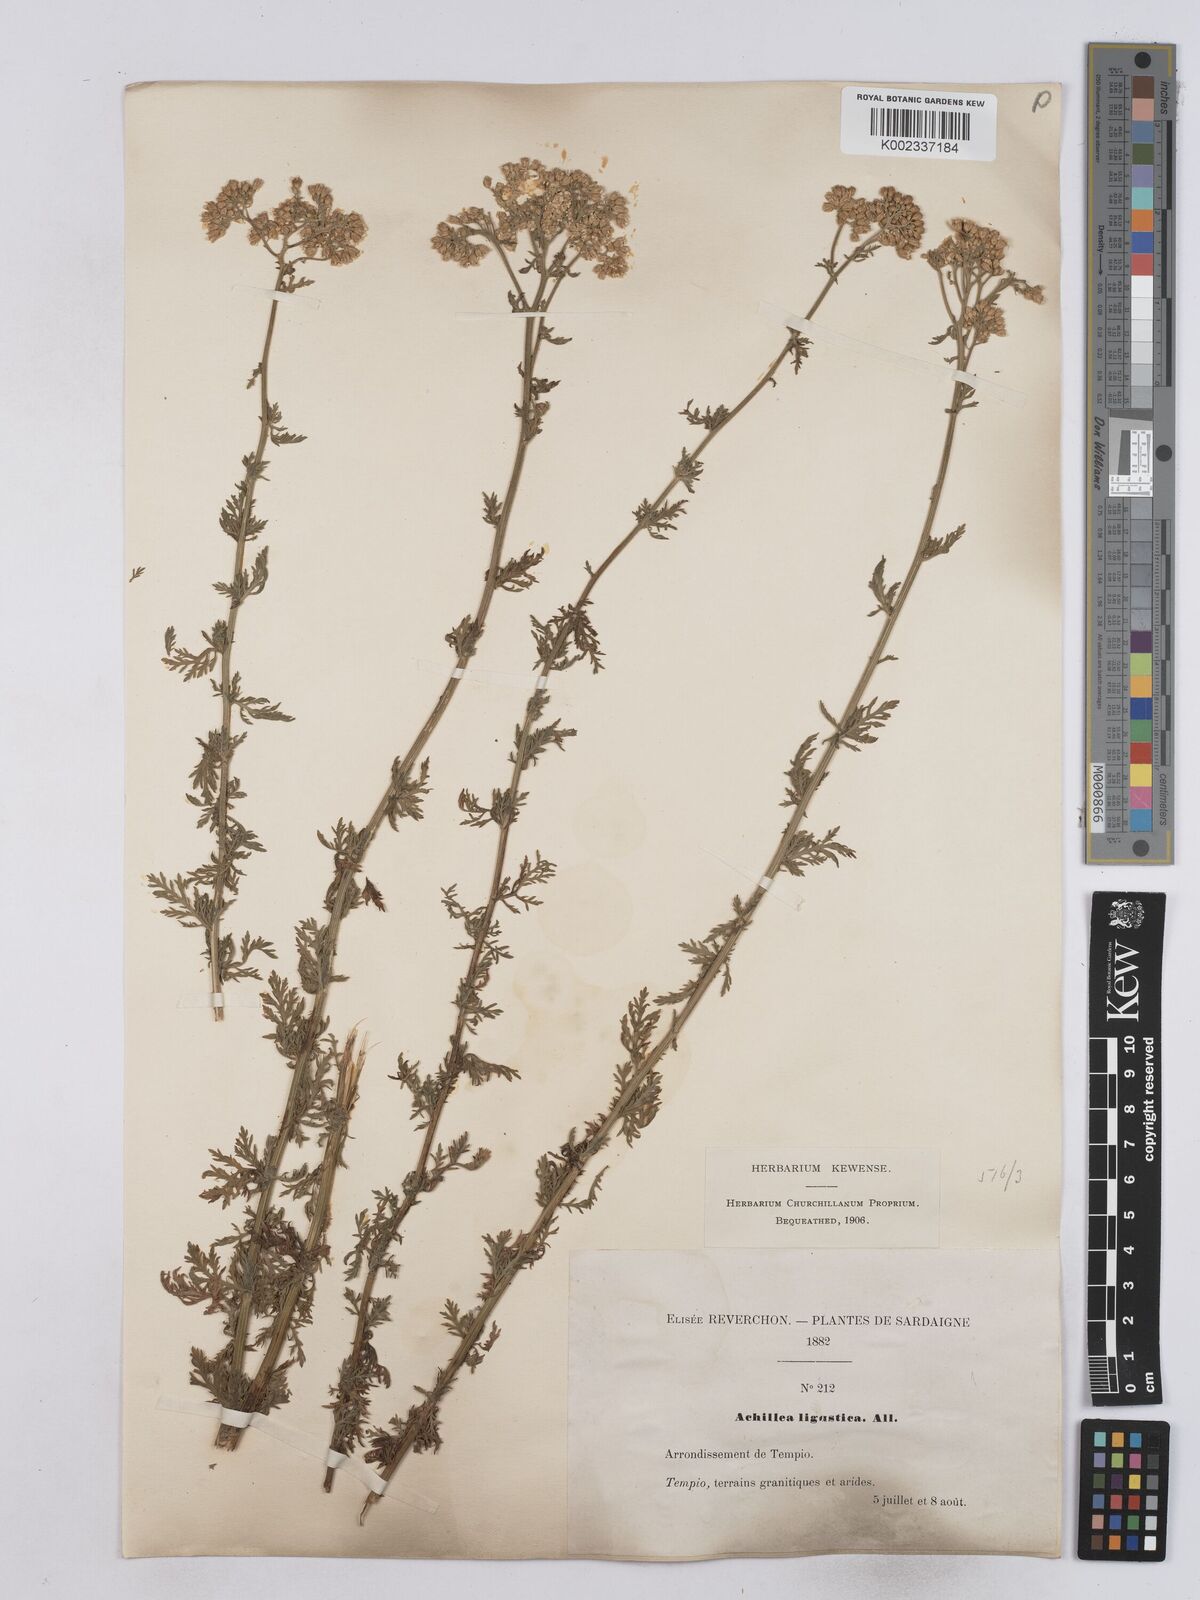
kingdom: Plantae
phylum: Tracheophyta
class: Magnoliopsida
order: Asterales
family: Asteraceae
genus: Achillea
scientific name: Achillea ligustica
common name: Southern yarrow
